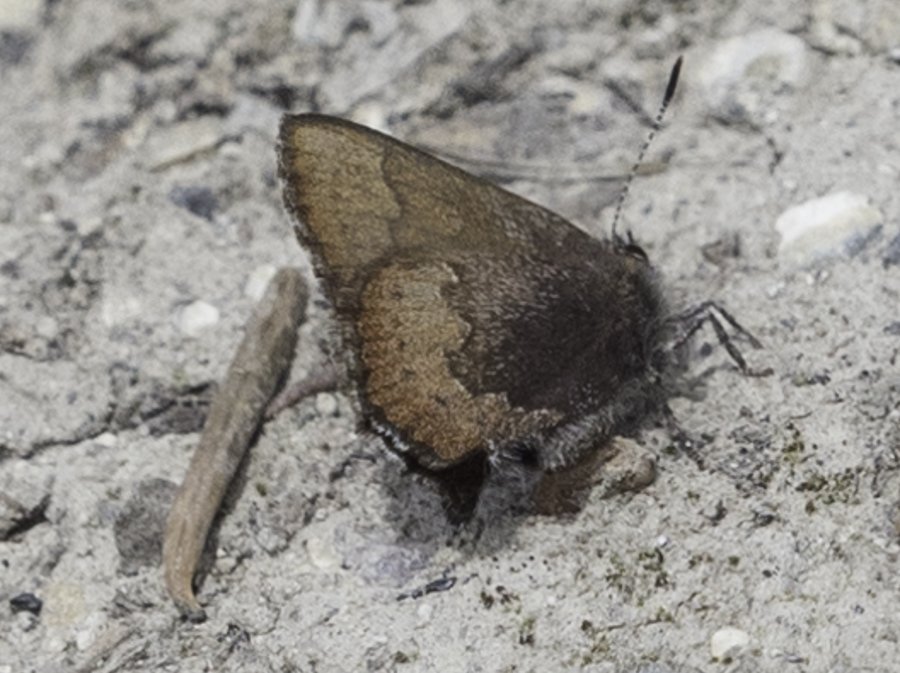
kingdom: Animalia
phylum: Arthropoda
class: Insecta
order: Lepidoptera
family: Lycaenidae
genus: Incisalia
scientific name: Incisalia irioides
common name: Brown Elfin
